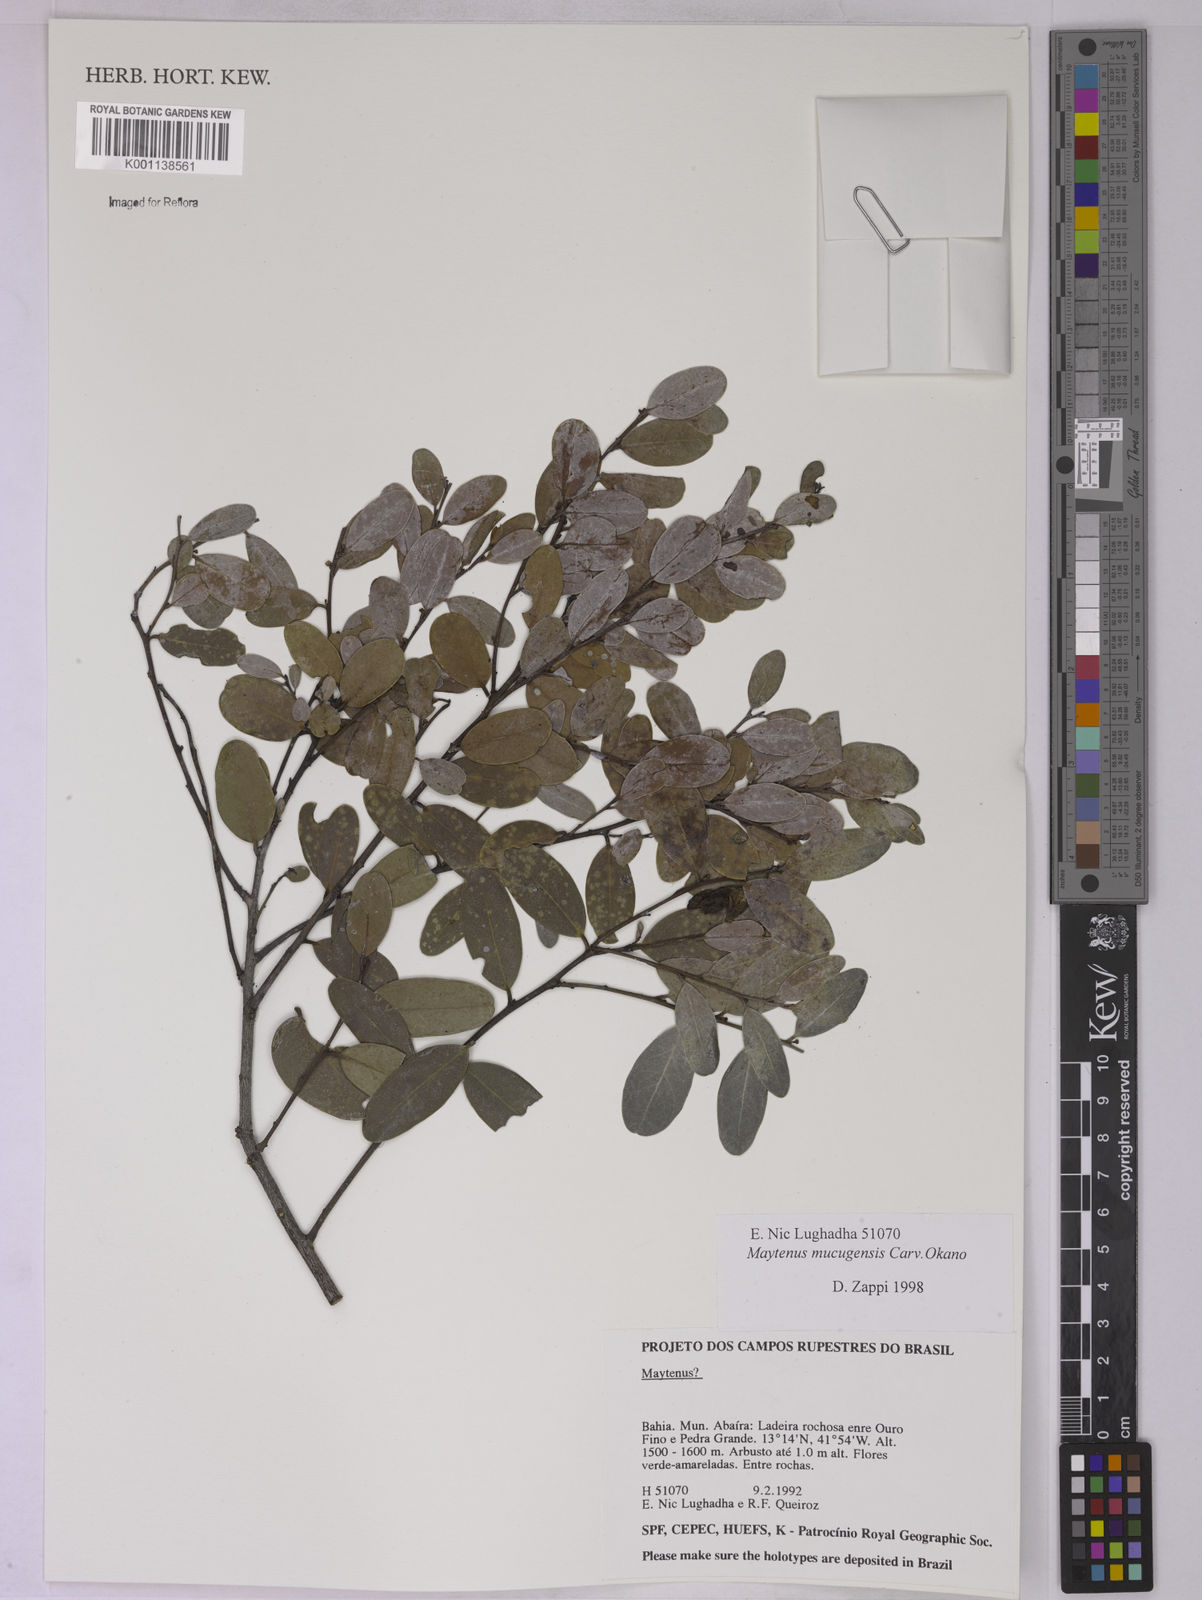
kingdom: Plantae
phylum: Tracheophyta
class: Magnoliopsida
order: Celastrales
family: Celastraceae
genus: Monteverdia
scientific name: Monteverdia mucugensis
